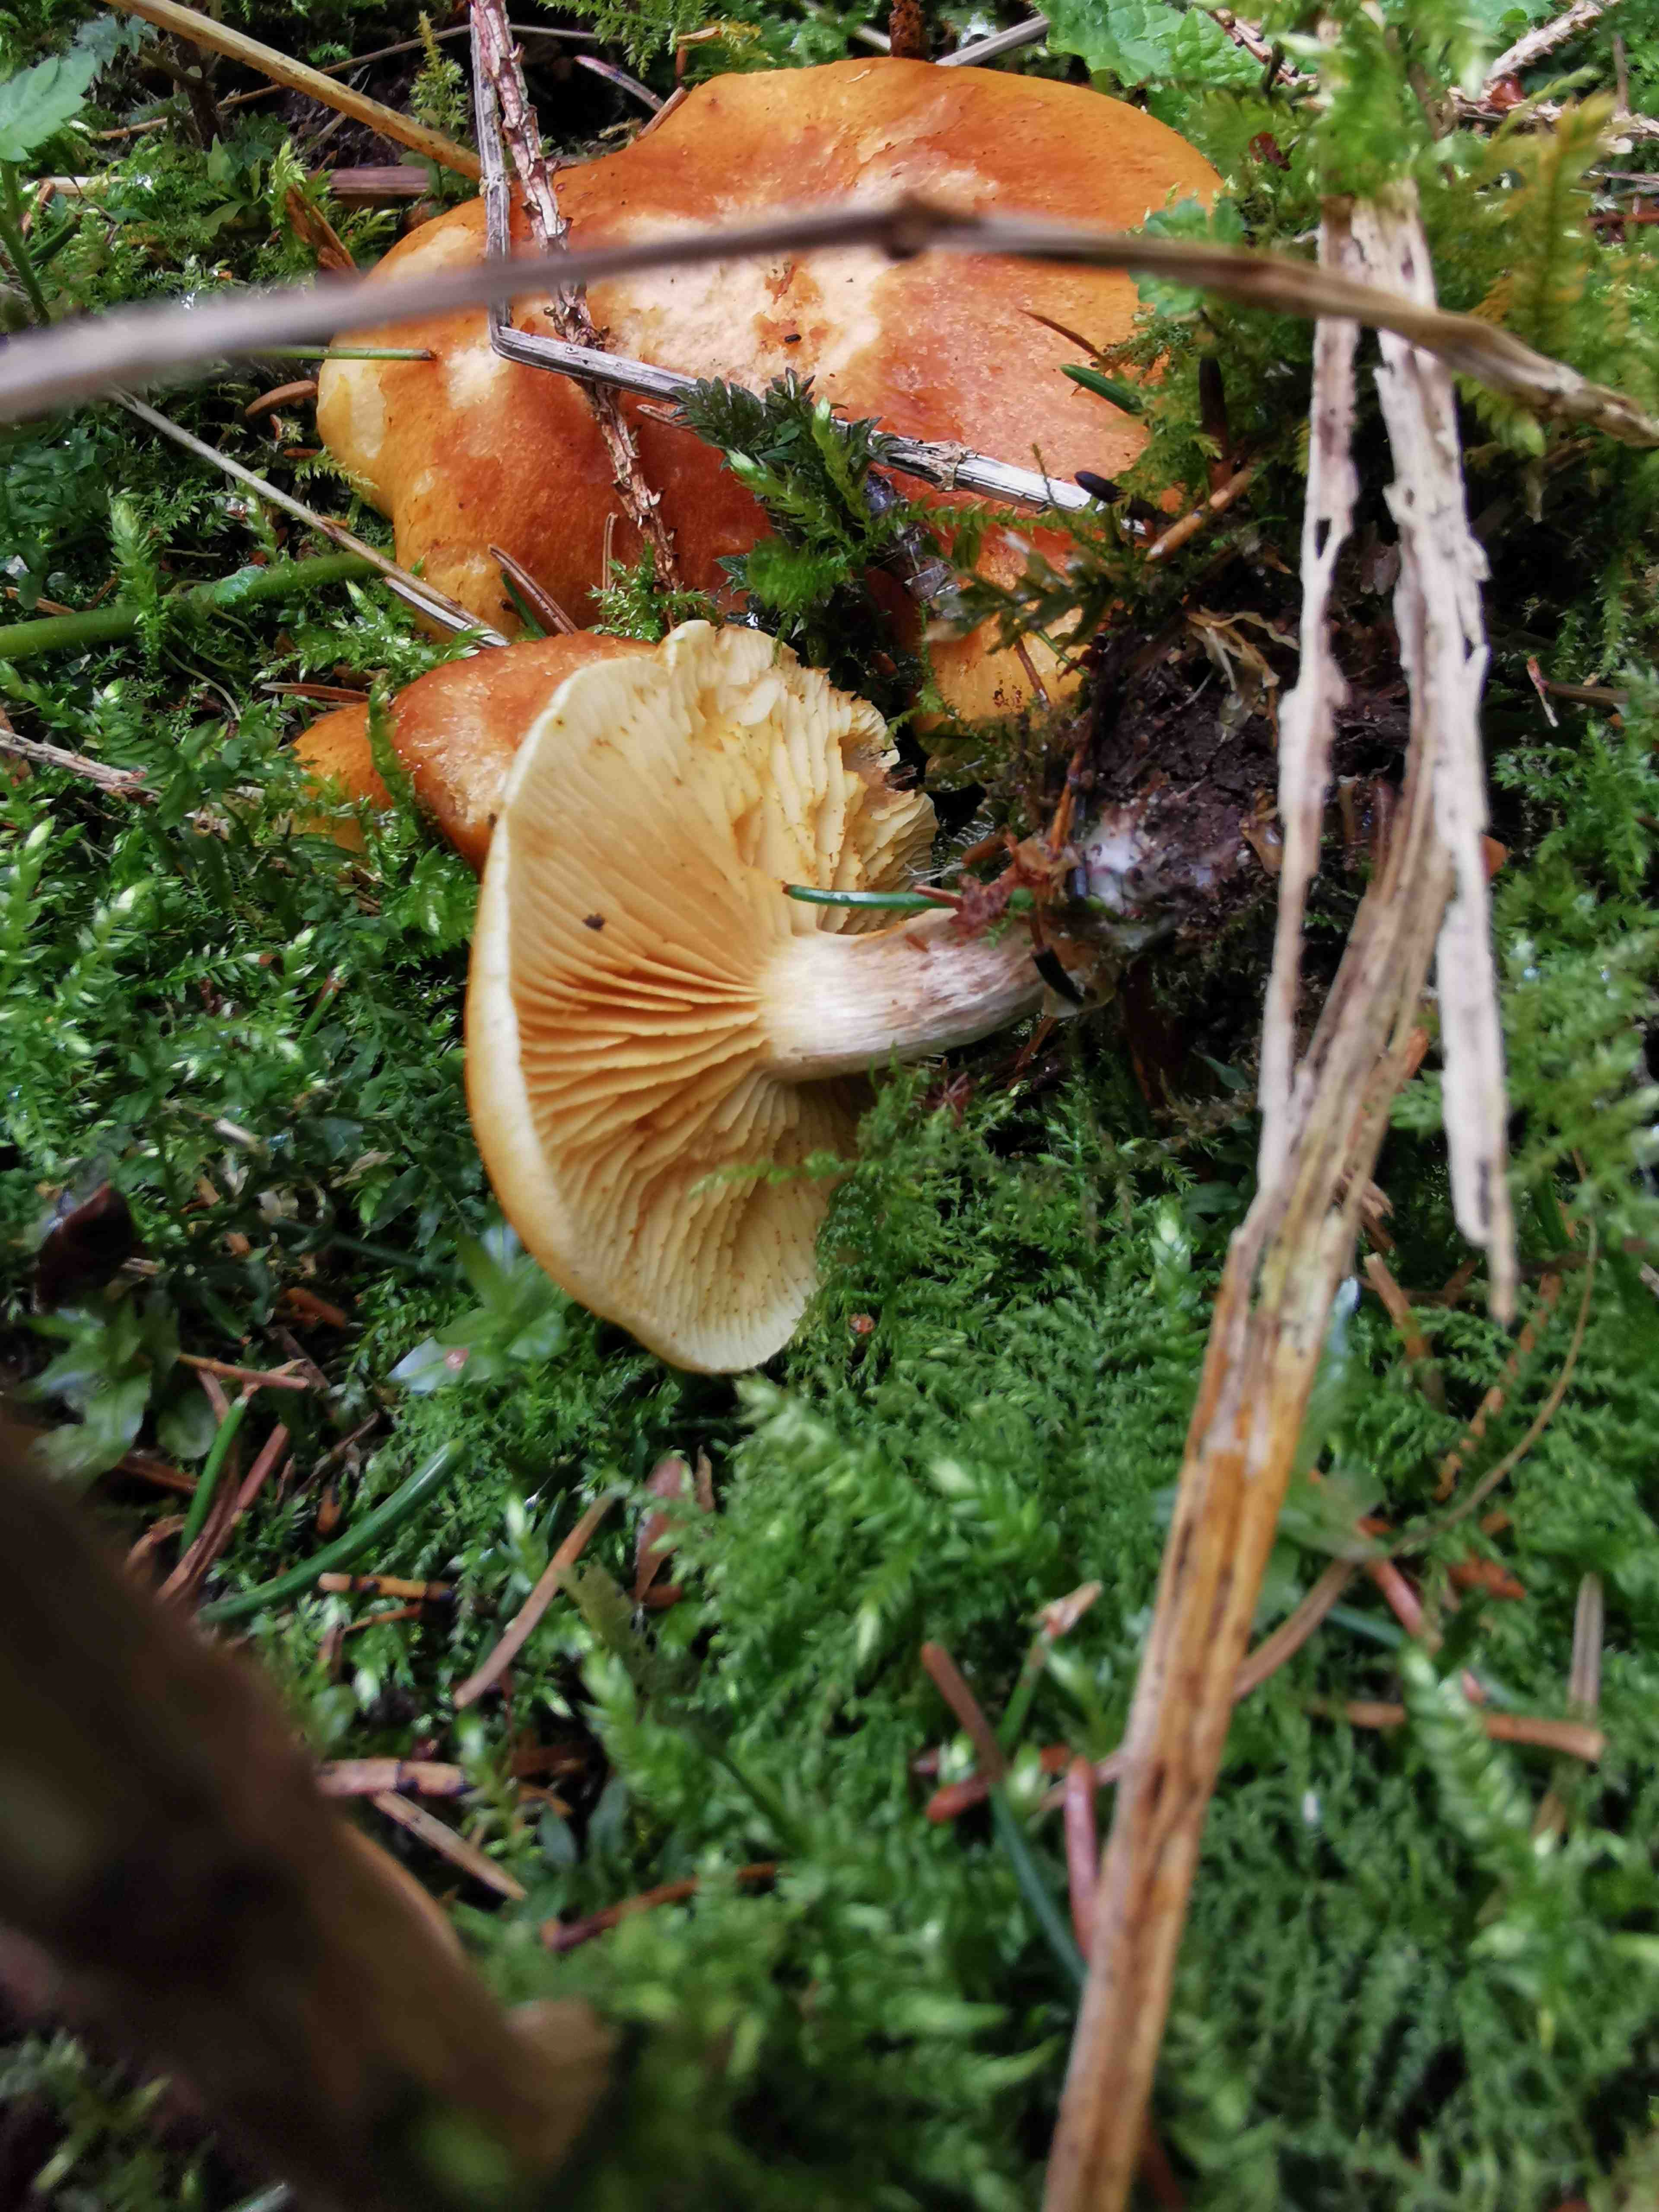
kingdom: Fungi
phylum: Basidiomycota
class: Agaricomycetes
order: Agaricales
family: Hymenogastraceae
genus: Gymnopilus
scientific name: Gymnopilus penetrans
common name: plettet flammehat
